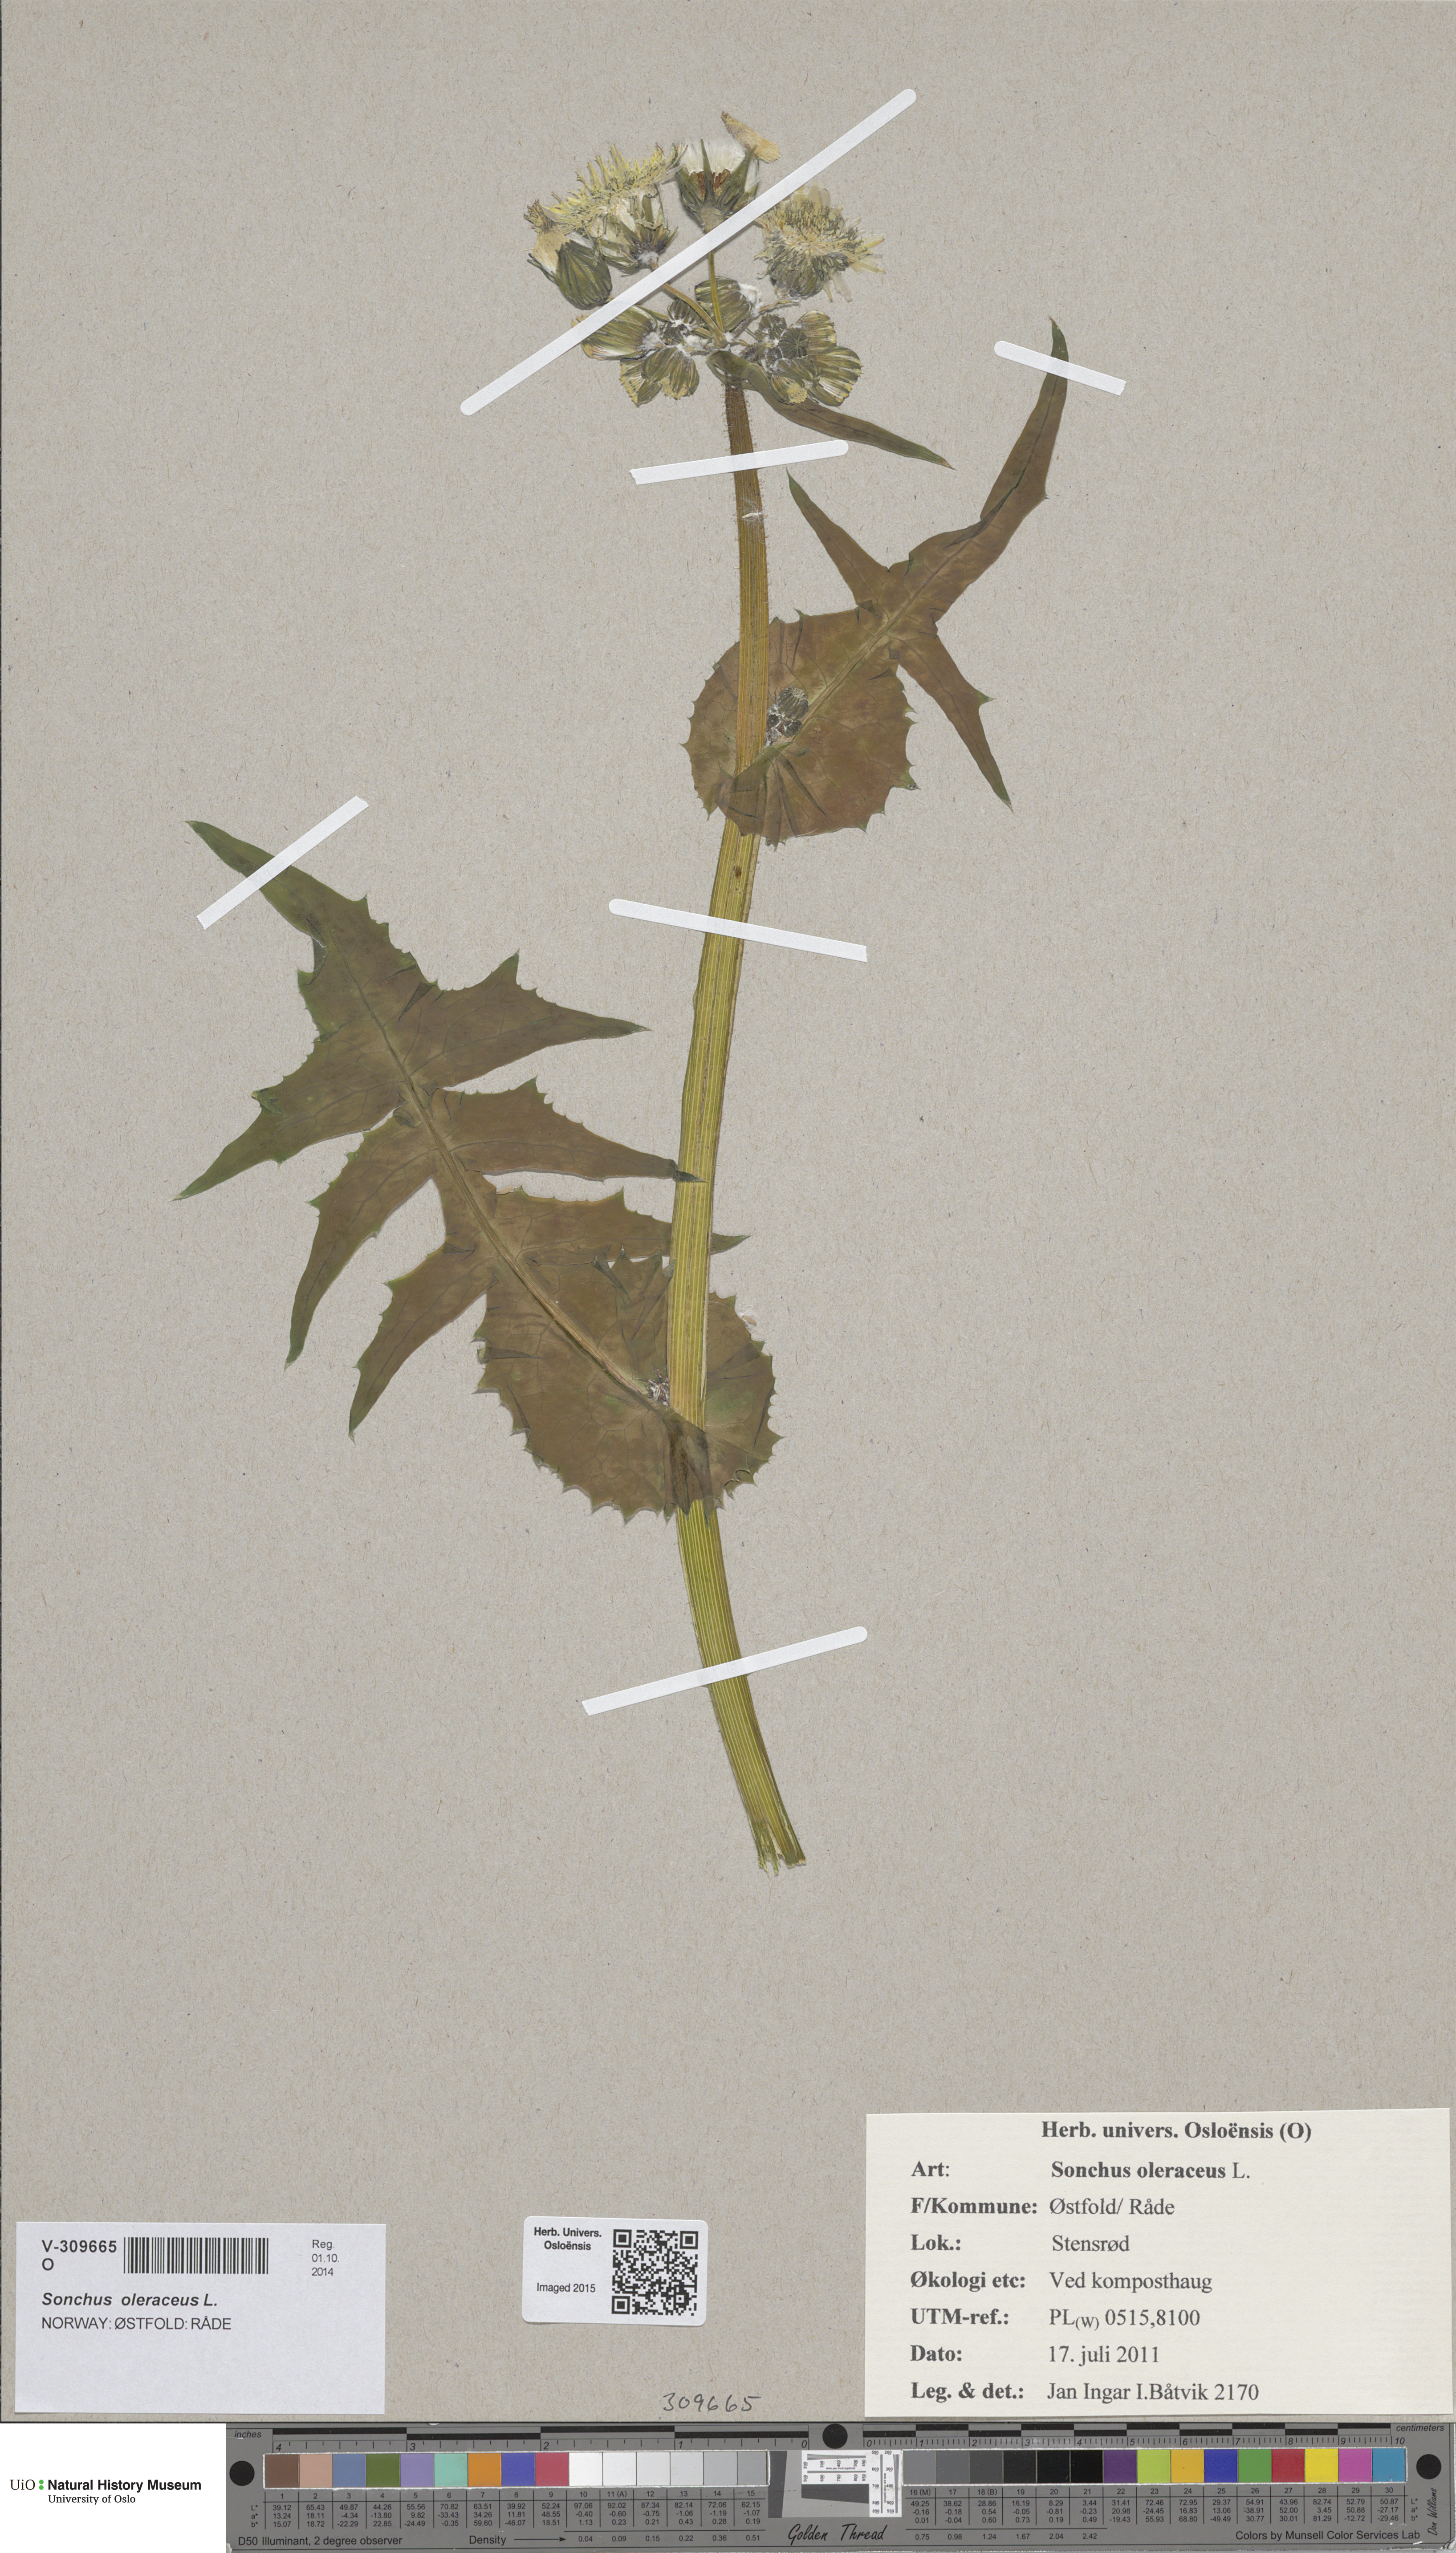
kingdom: Plantae
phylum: Tracheophyta
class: Magnoliopsida
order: Asterales
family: Asteraceae
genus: Sonchus
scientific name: Sonchus oleraceus
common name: Common sowthistle
